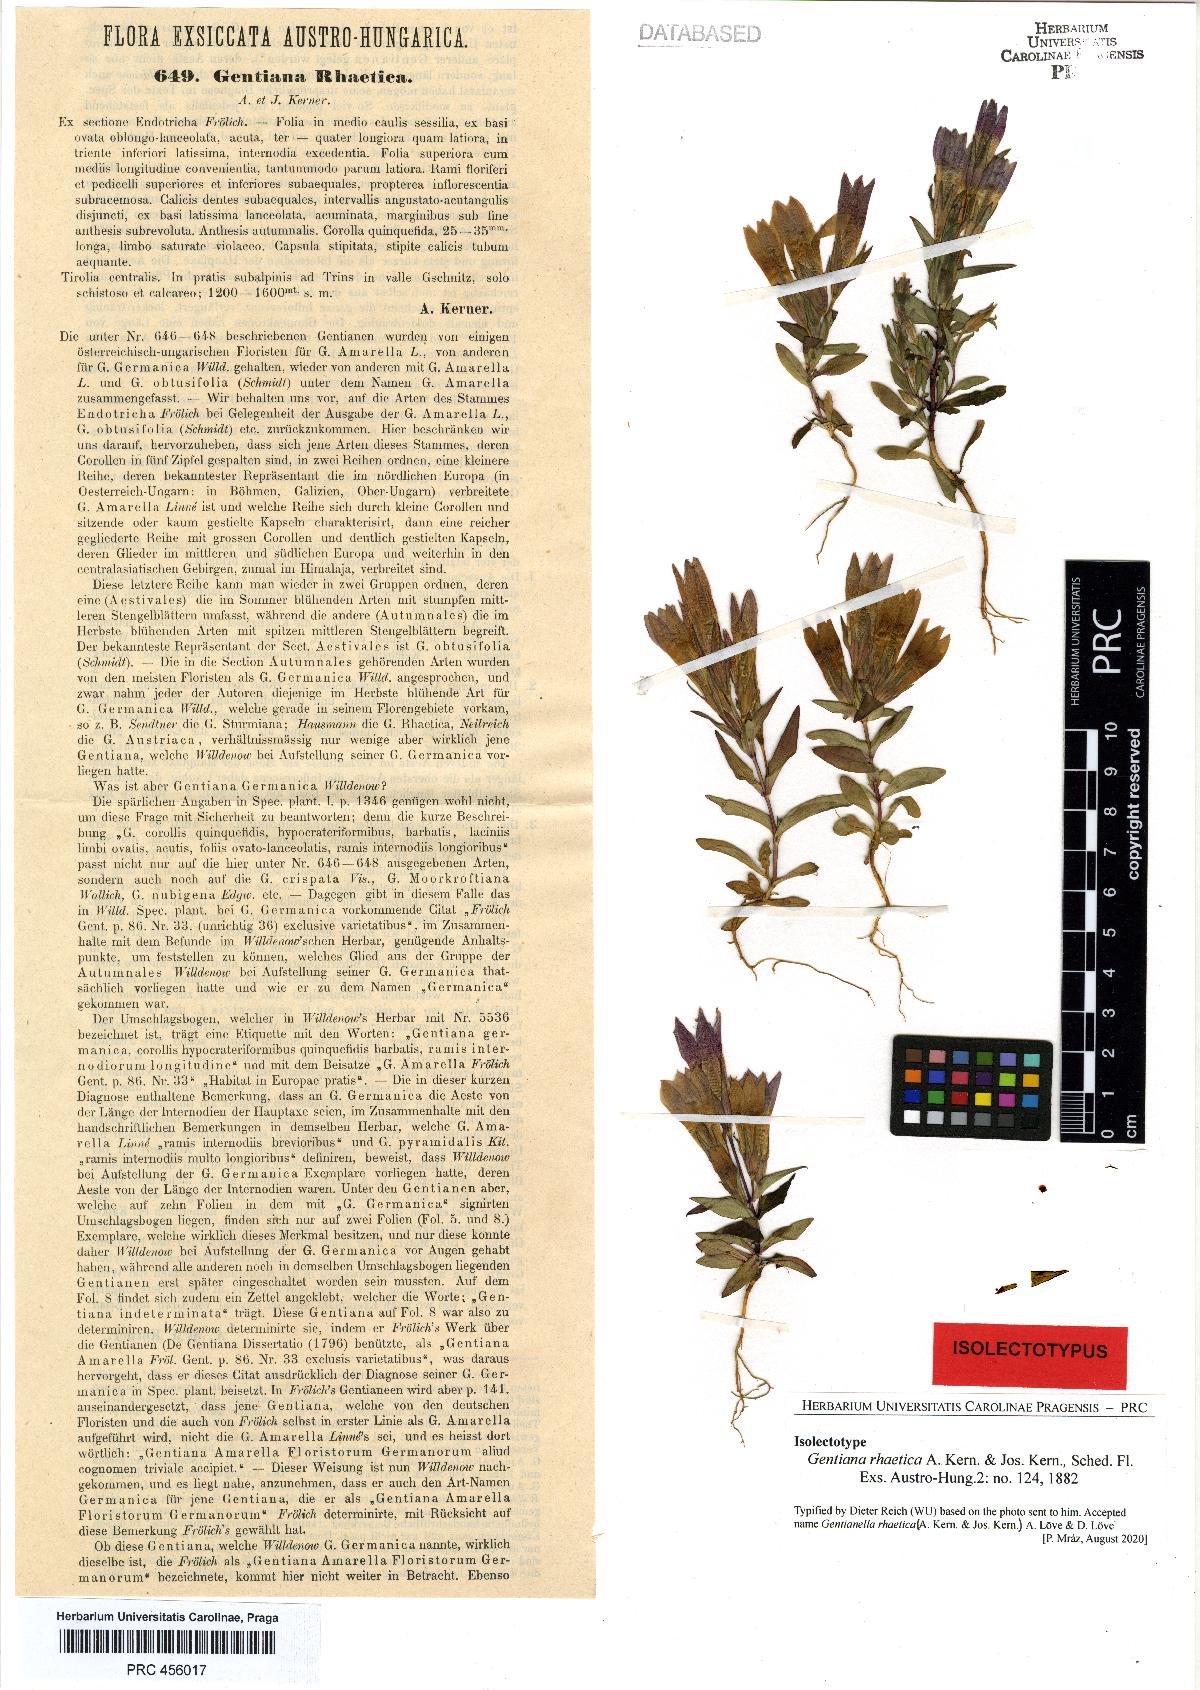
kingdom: Plantae
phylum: Tracheophyta
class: Magnoliopsida
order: Gentianales
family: Gentianaceae
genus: Gentianella
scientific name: Gentianella rhaetica
